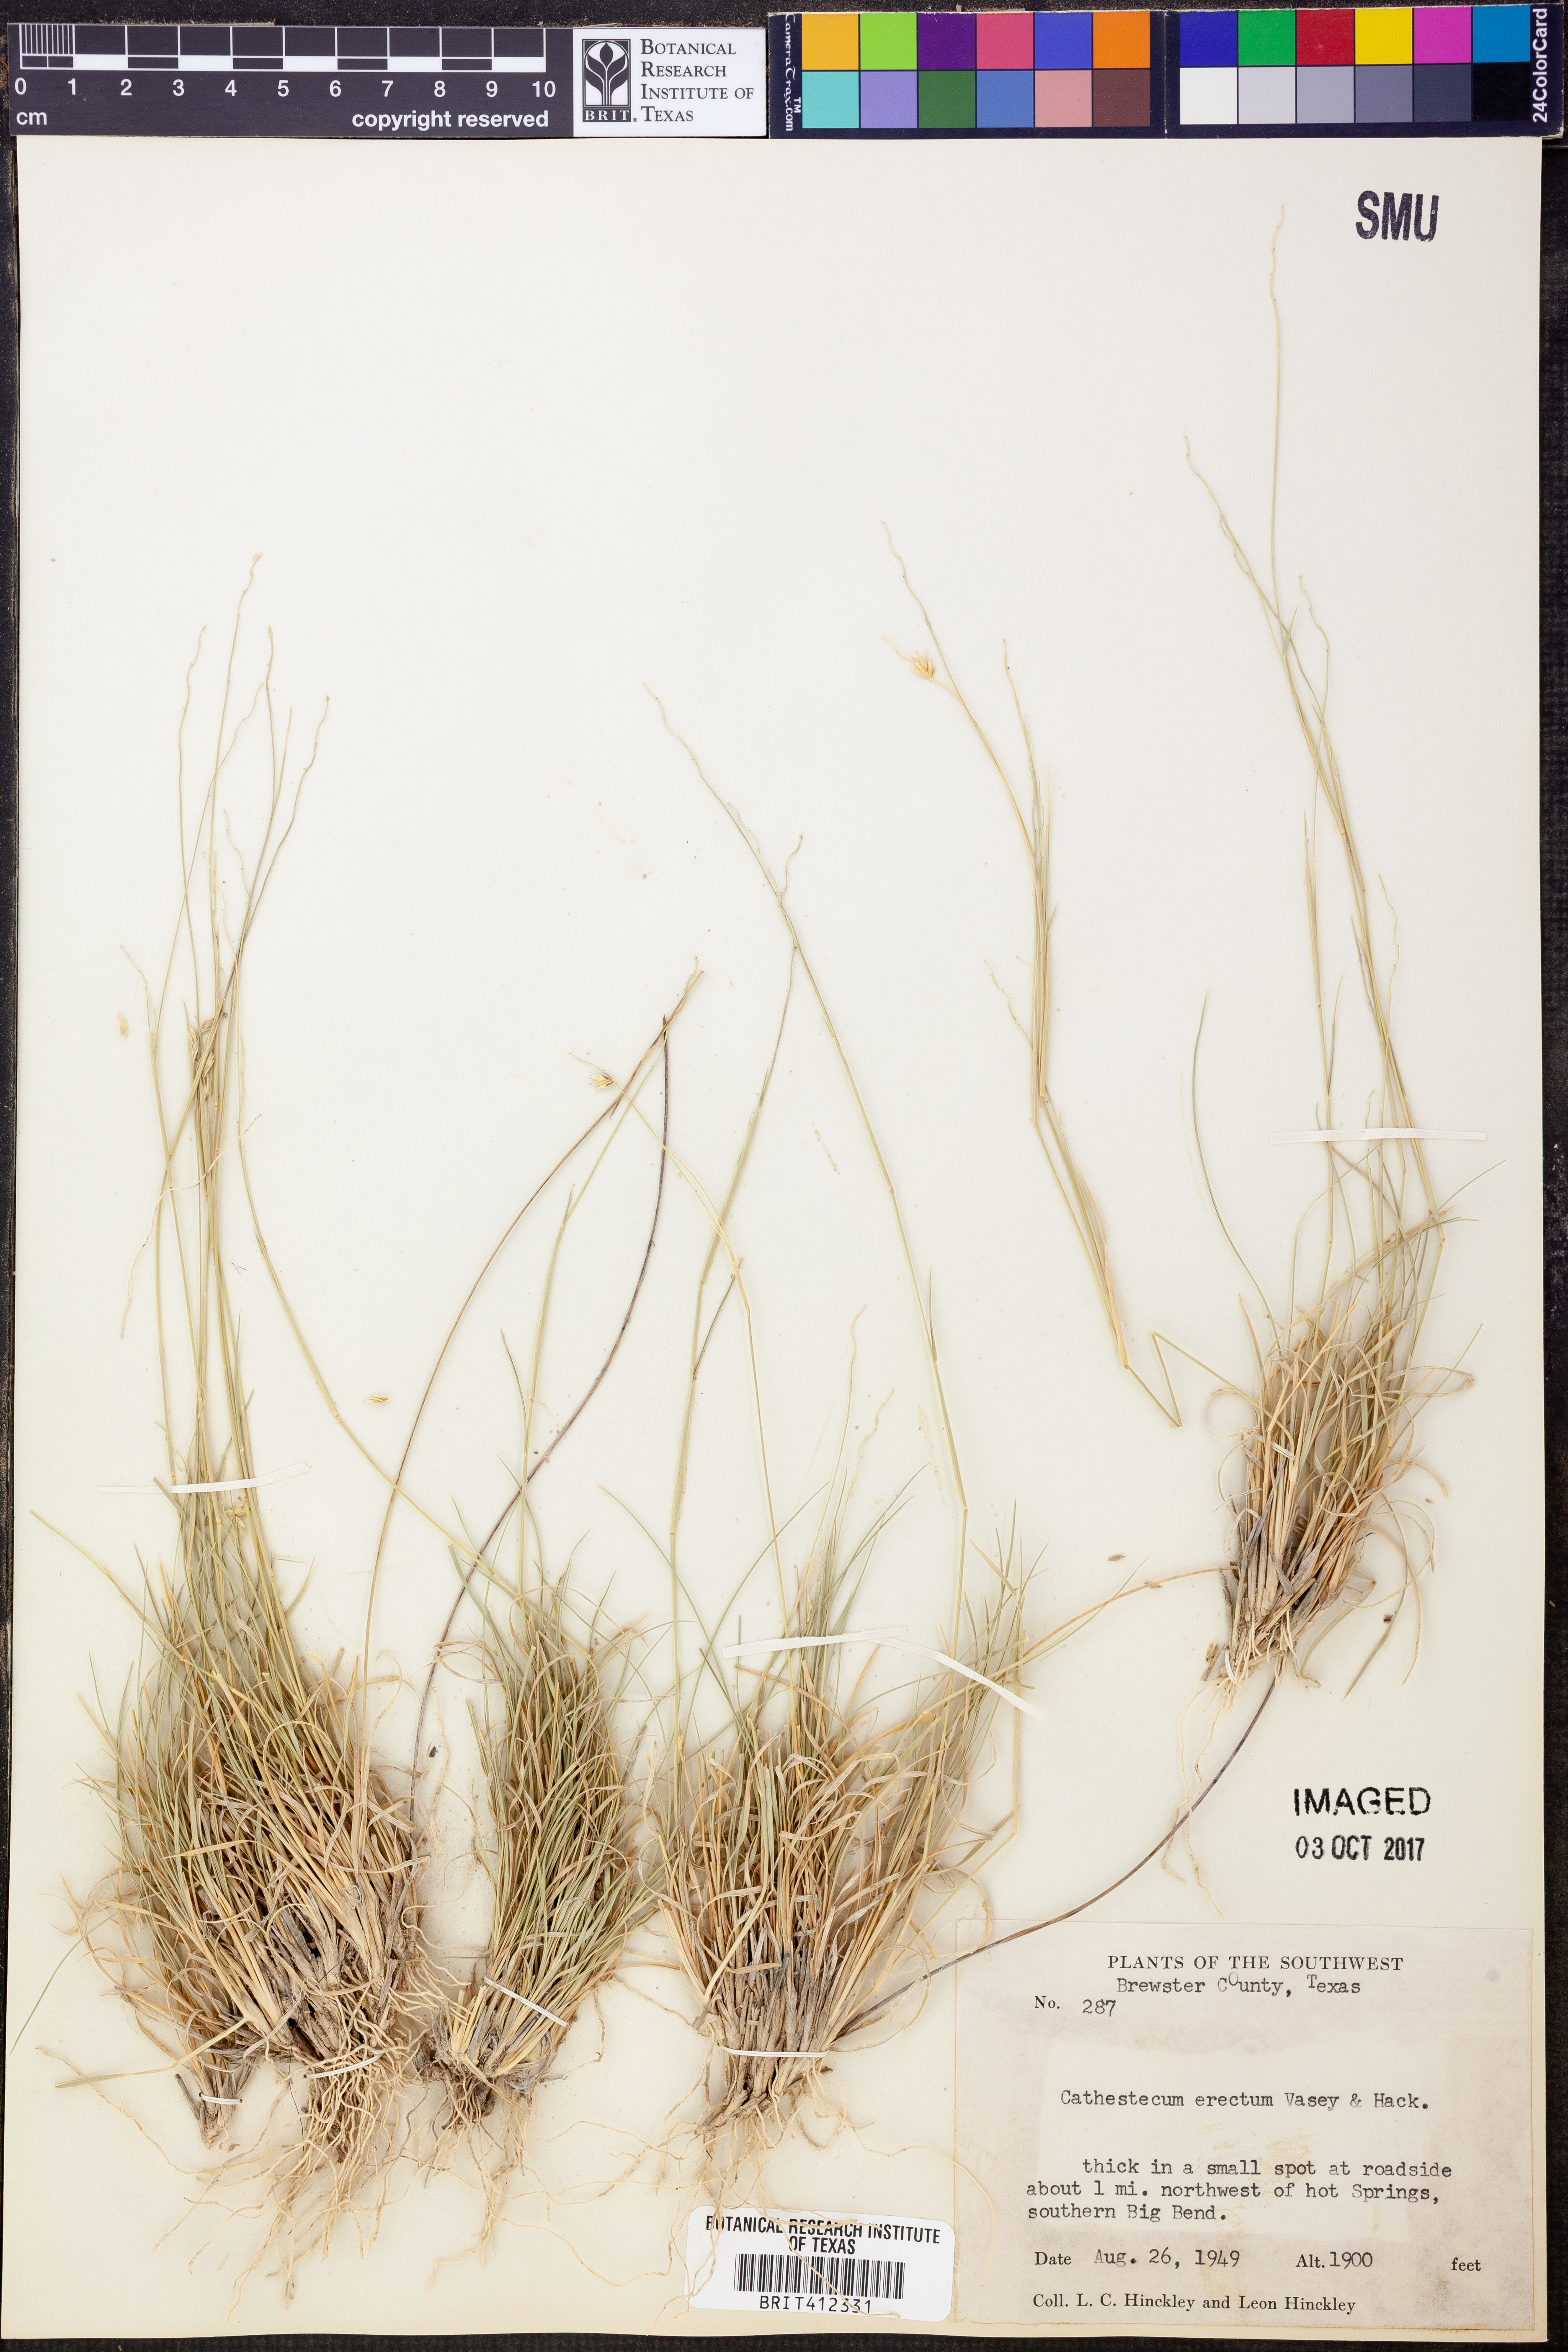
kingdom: Plantae
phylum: Tracheophyta
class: Liliopsida
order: Poales
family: Poaceae
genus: Bouteloua
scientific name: Bouteloua erecta
